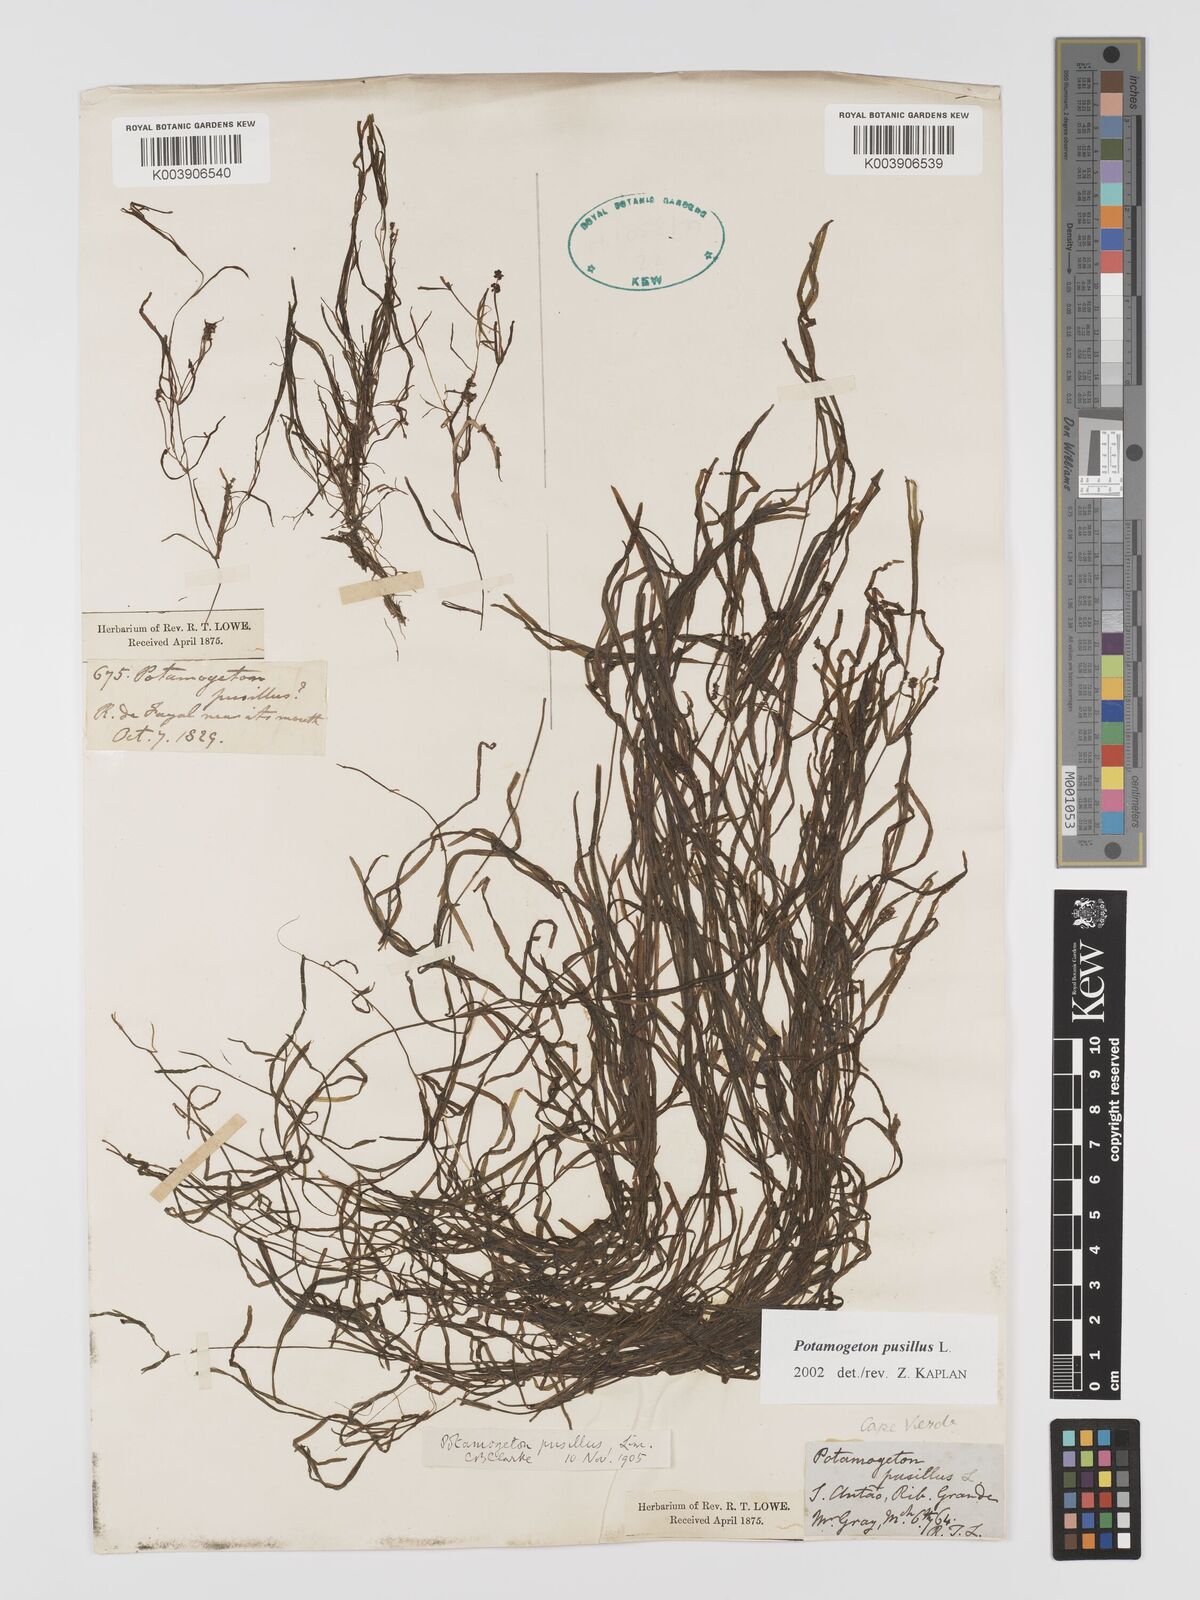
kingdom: Plantae
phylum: Tracheophyta
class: Liliopsida
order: Alismatales
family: Potamogetonaceae
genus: Potamogeton
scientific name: Potamogeton pusillus
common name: Lesser pondweed
